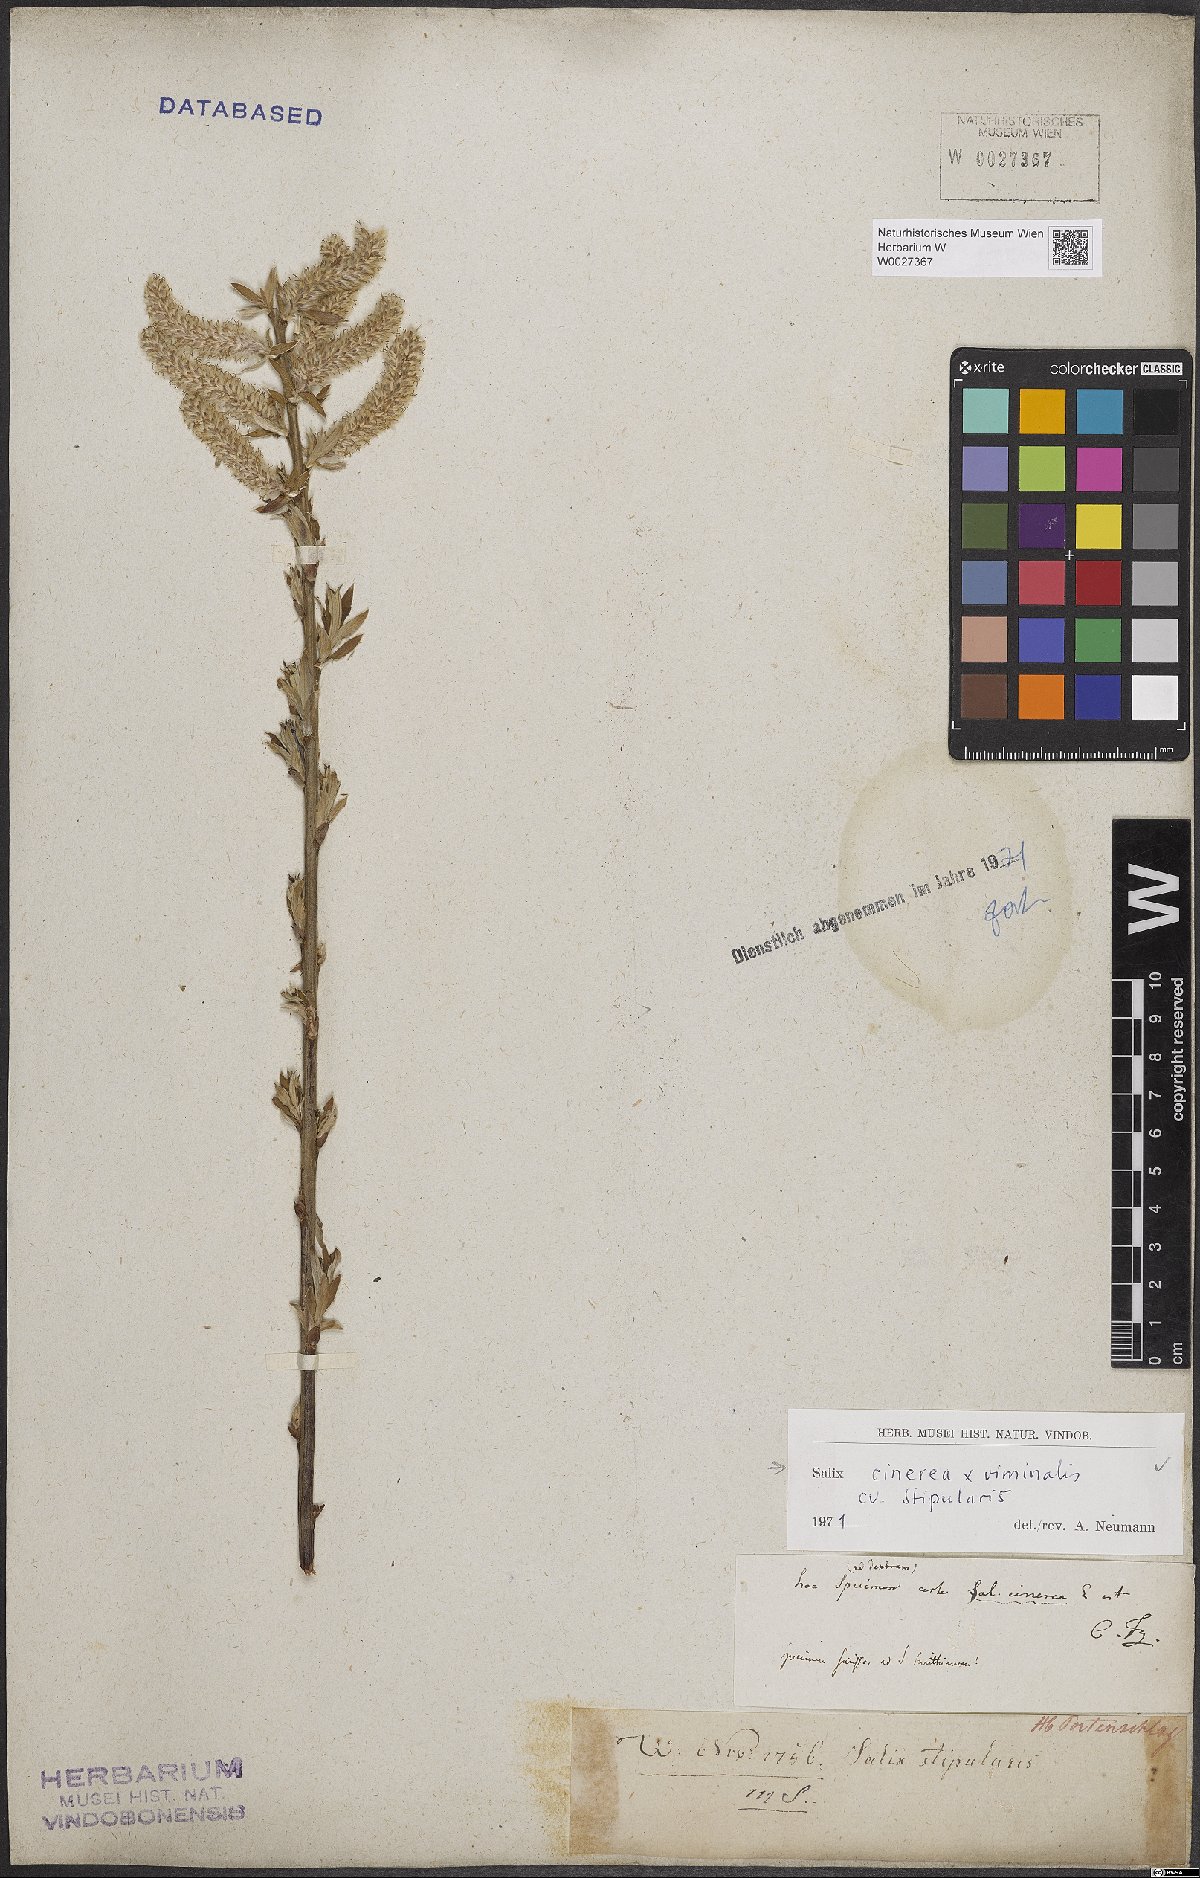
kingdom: Plantae
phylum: Tracheophyta
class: Magnoliopsida
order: Malpighiales
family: Salicaceae
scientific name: Salicaceae
